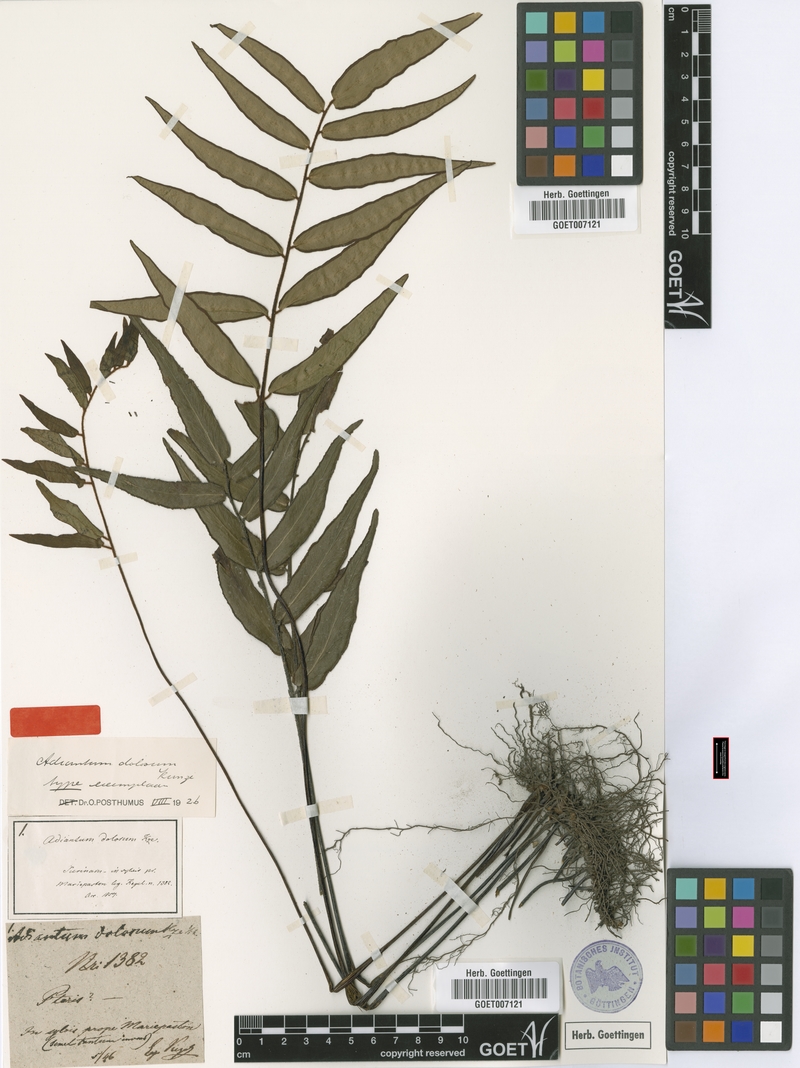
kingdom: Plantae
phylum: Tracheophyta
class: Polypodiopsida
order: Polypodiales
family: Pteridaceae
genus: Adiantum
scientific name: Adiantum dolosum
